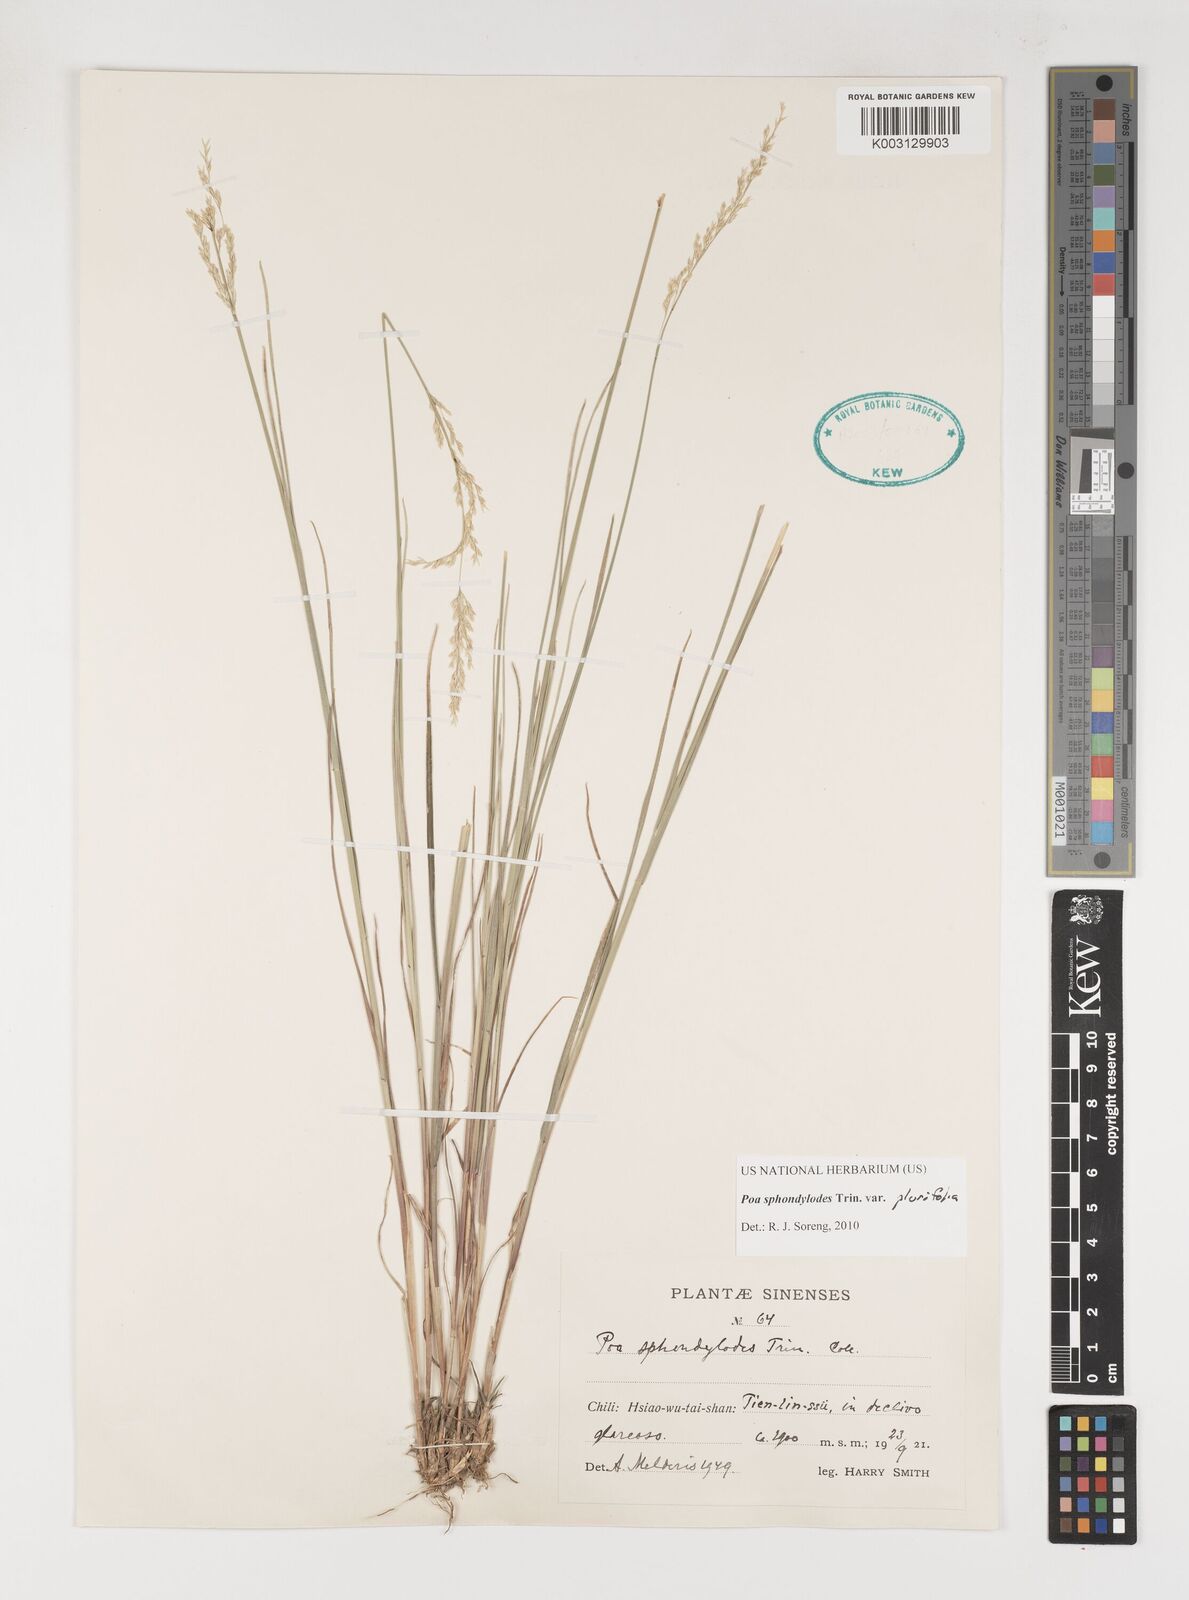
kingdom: Plantae
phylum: Tracheophyta
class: Liliopsida
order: Poales
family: Poaceae
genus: Poa
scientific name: Poa sphondylodes
